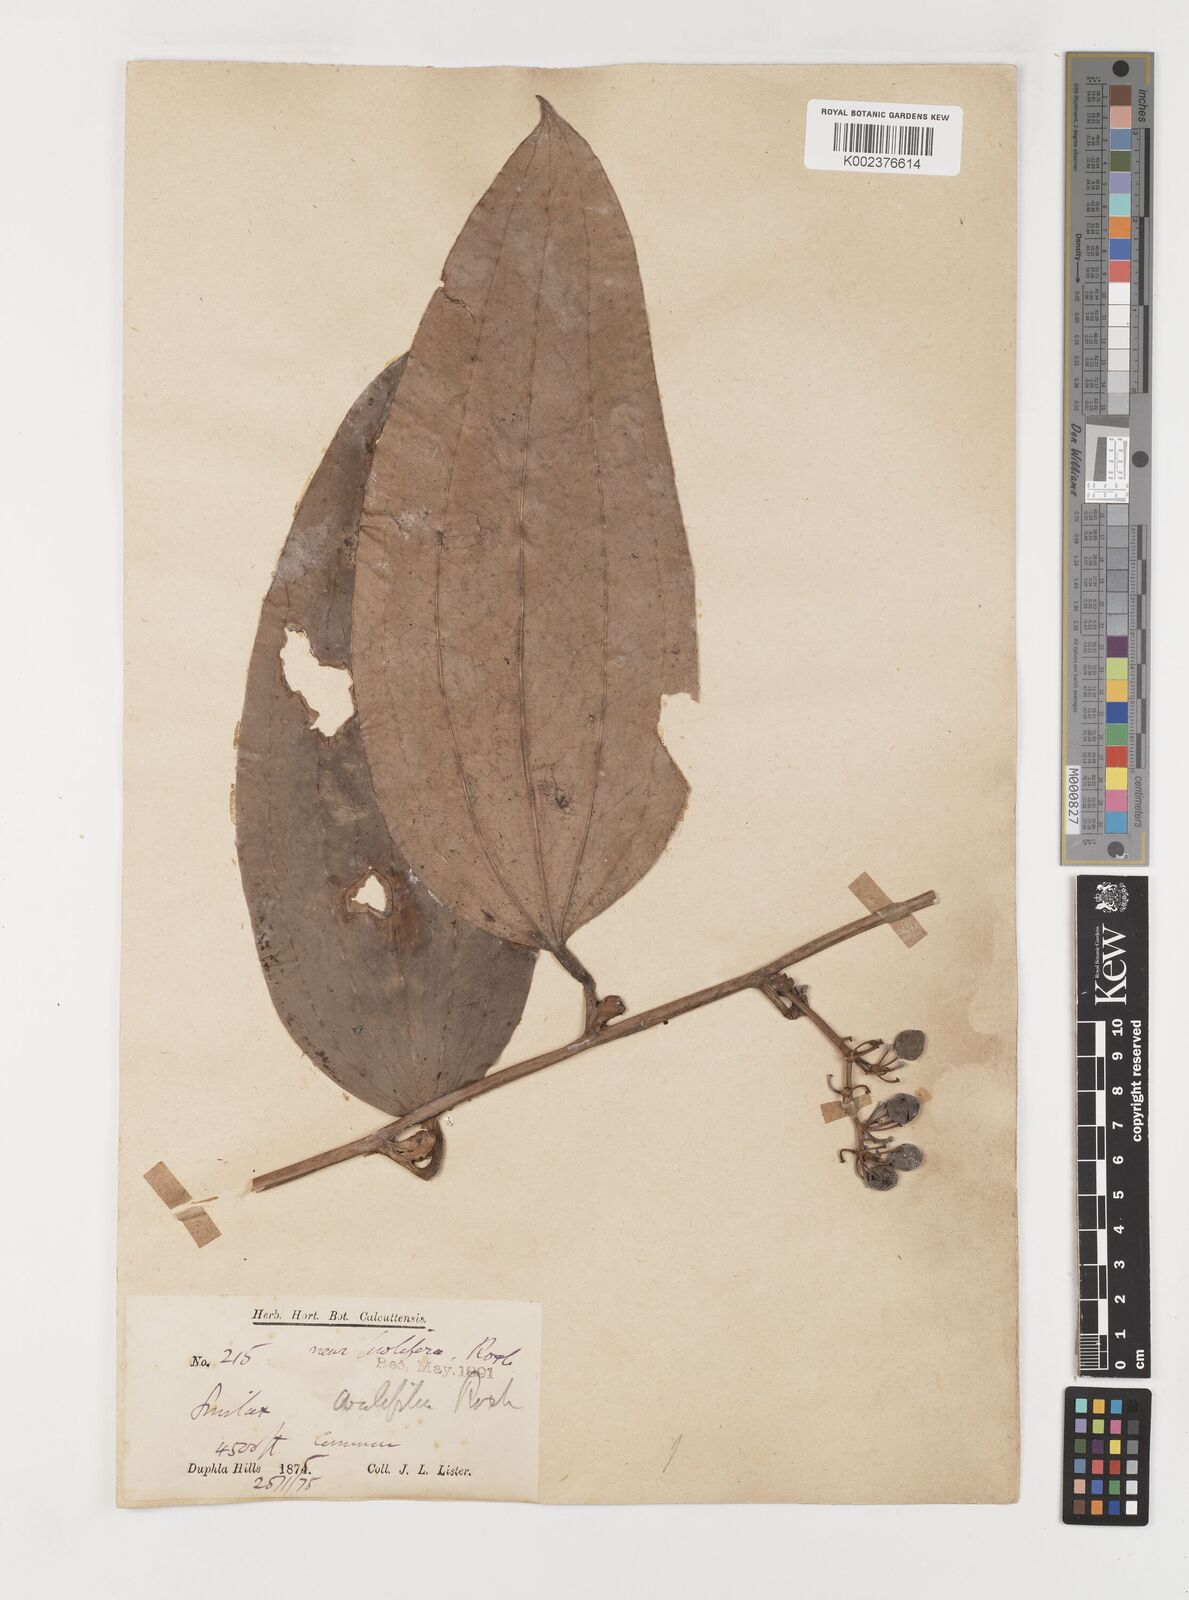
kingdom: Plantae
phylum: Tracheophyta
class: Liliopsida
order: Liliales
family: Smilacaceae
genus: Smilax
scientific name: Smilax griffithii
